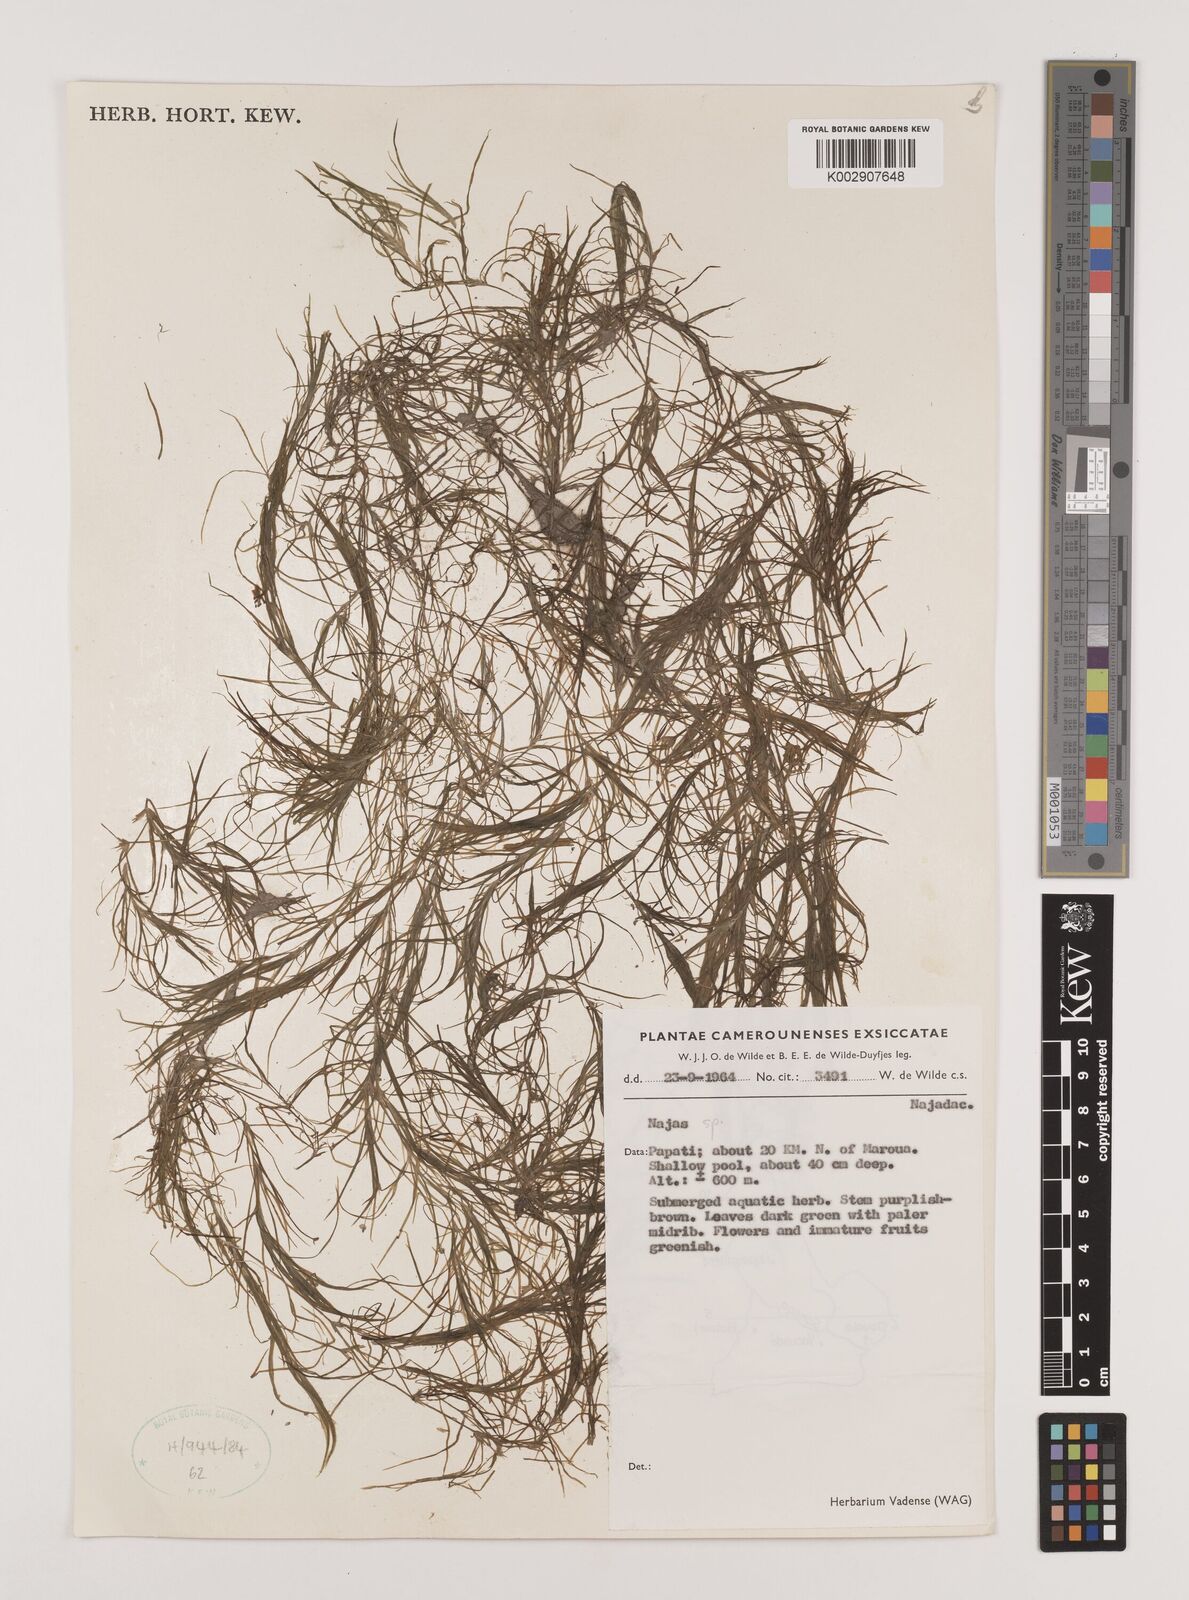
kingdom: Plantae
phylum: Tracheophyta
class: Liliopsida
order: Alismatales
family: Hydrocharitaceae
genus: Najas
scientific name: Najas
